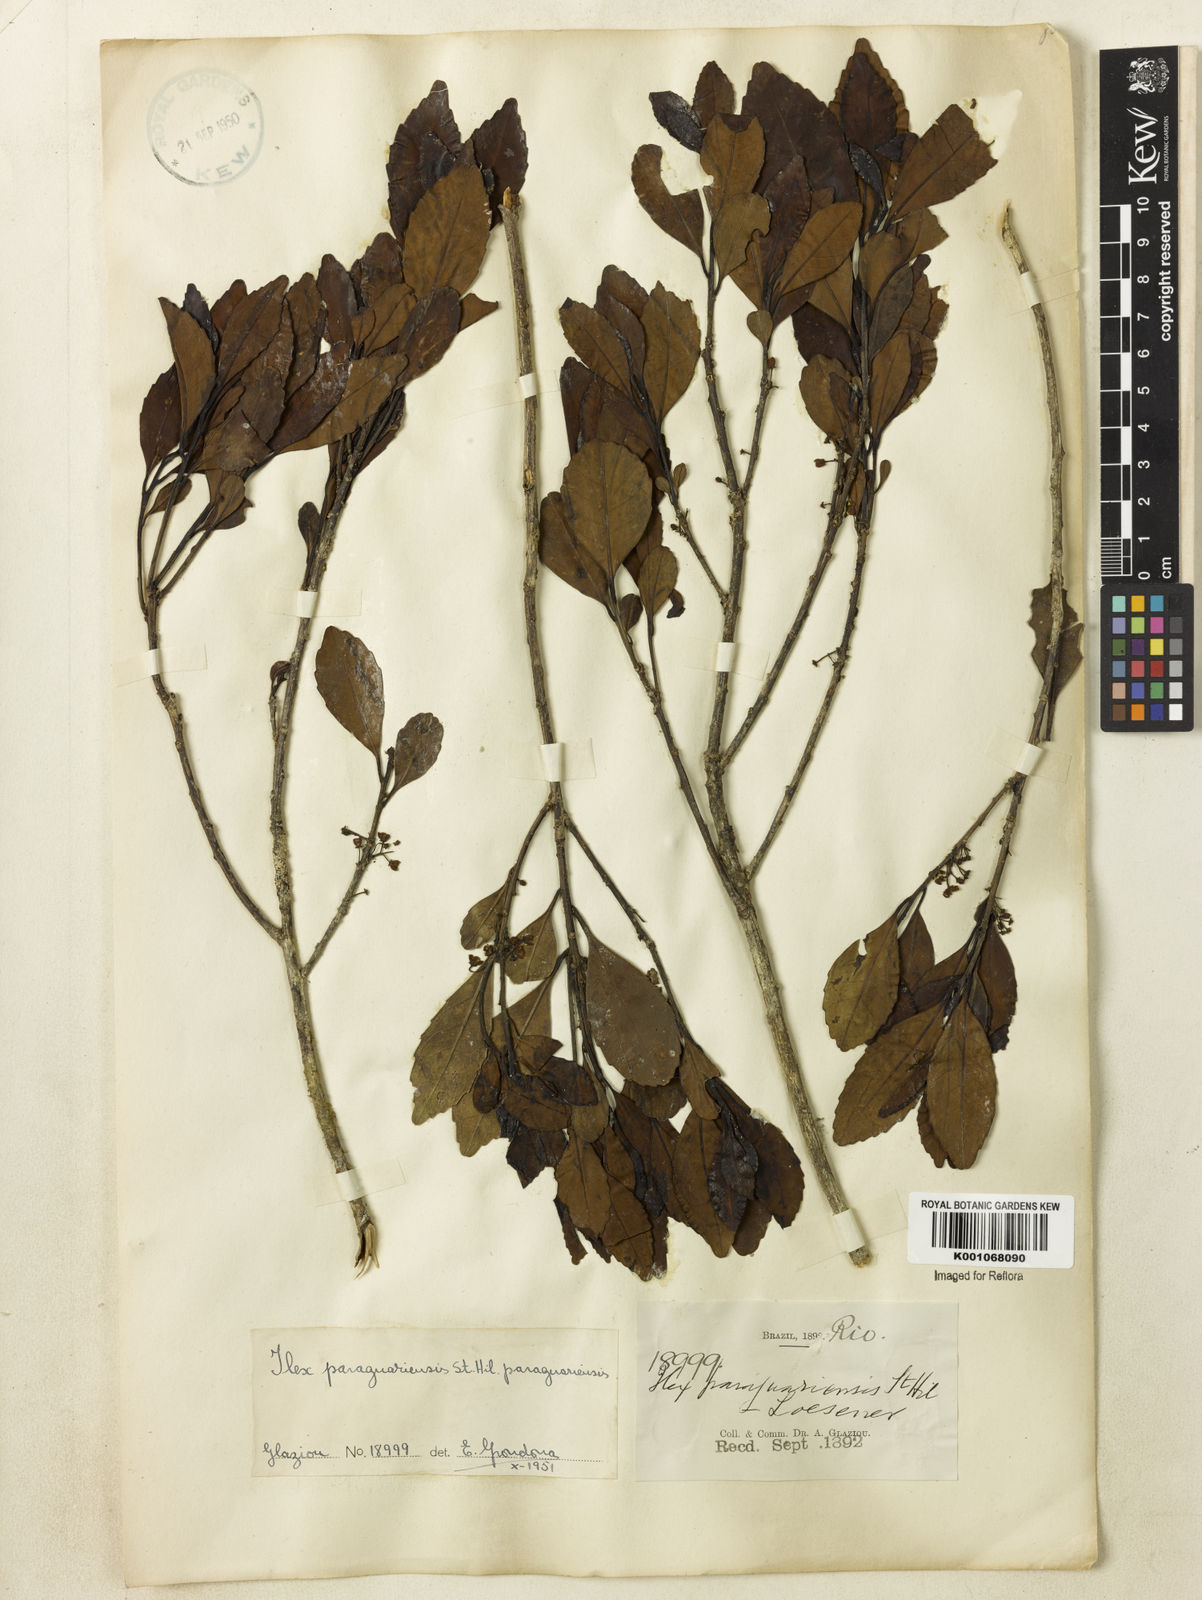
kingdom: Plantae
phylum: Tracheophyta
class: Magnoliopsida
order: Aquifoliales
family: Aquifoliaceae
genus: Ilex
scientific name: Ilex paraguariensis
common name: Paraguay tea
